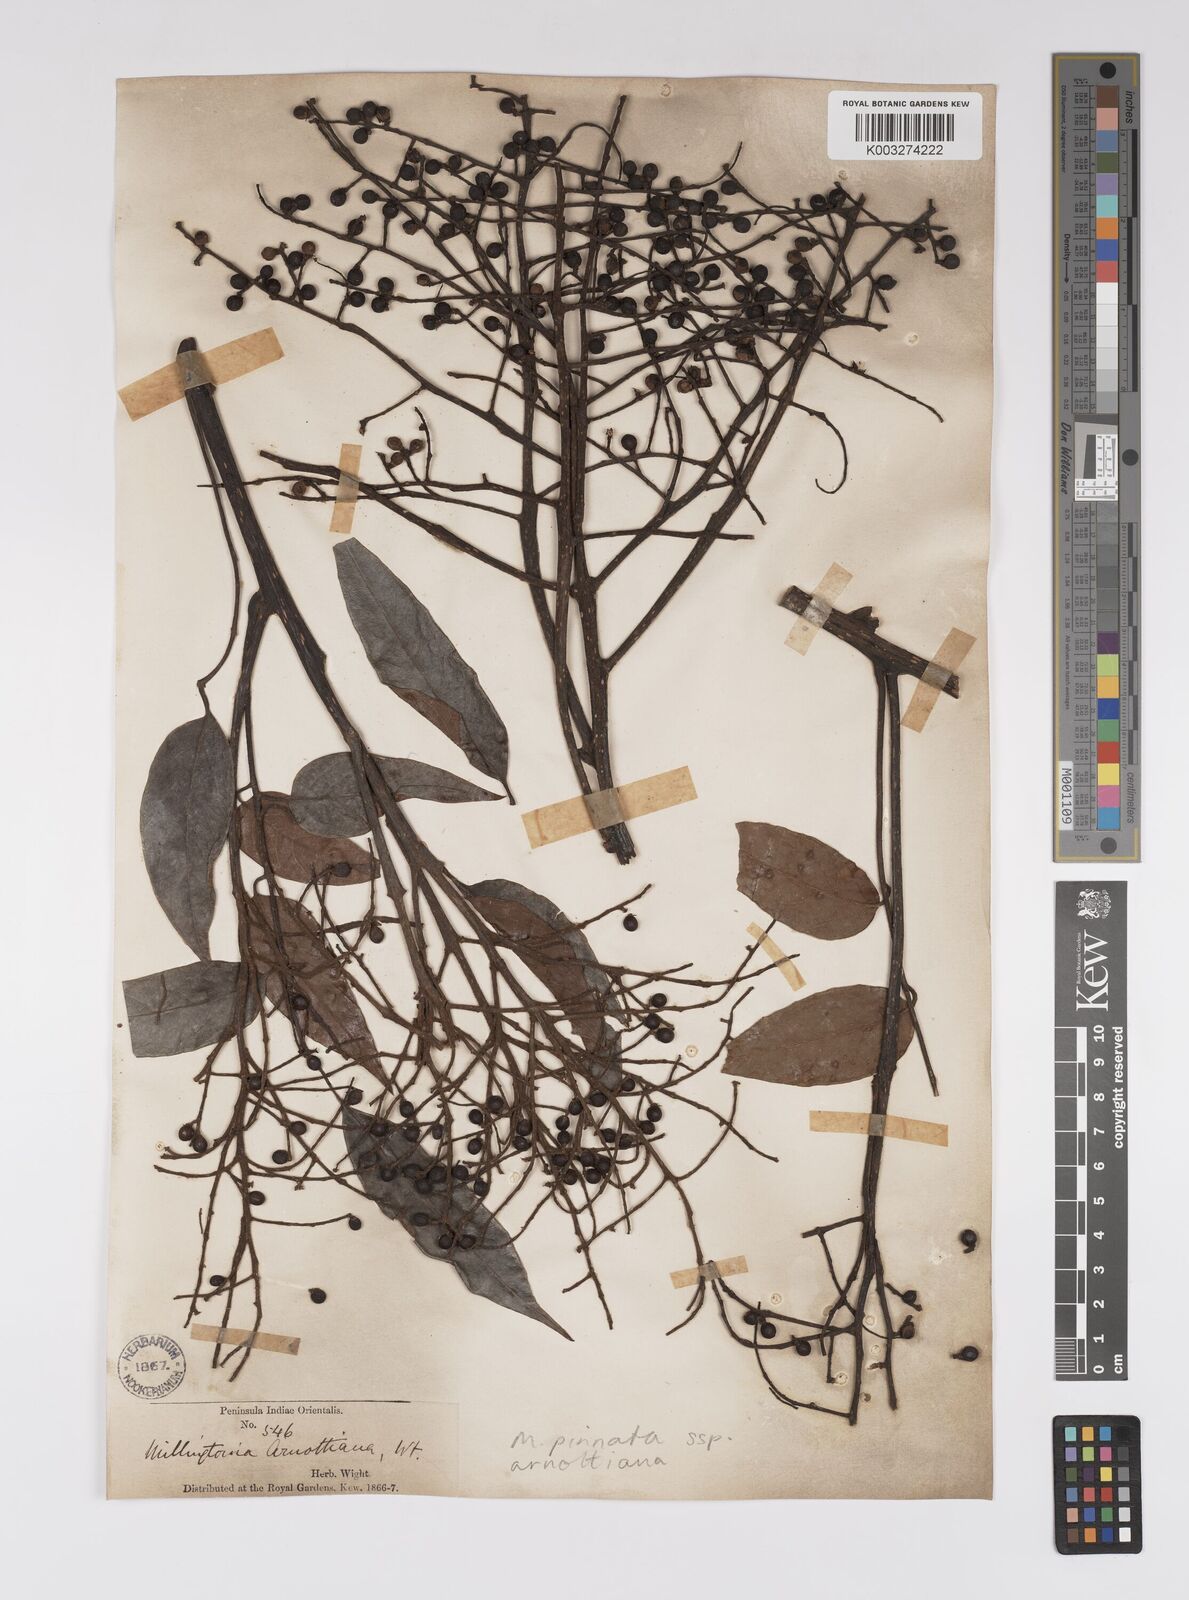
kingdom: Plantae
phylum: Tracheophyta
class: Magnoliopsida
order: Proteales
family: Sabiaceae
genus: Meliosma
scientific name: Meliosma rhoifolia
